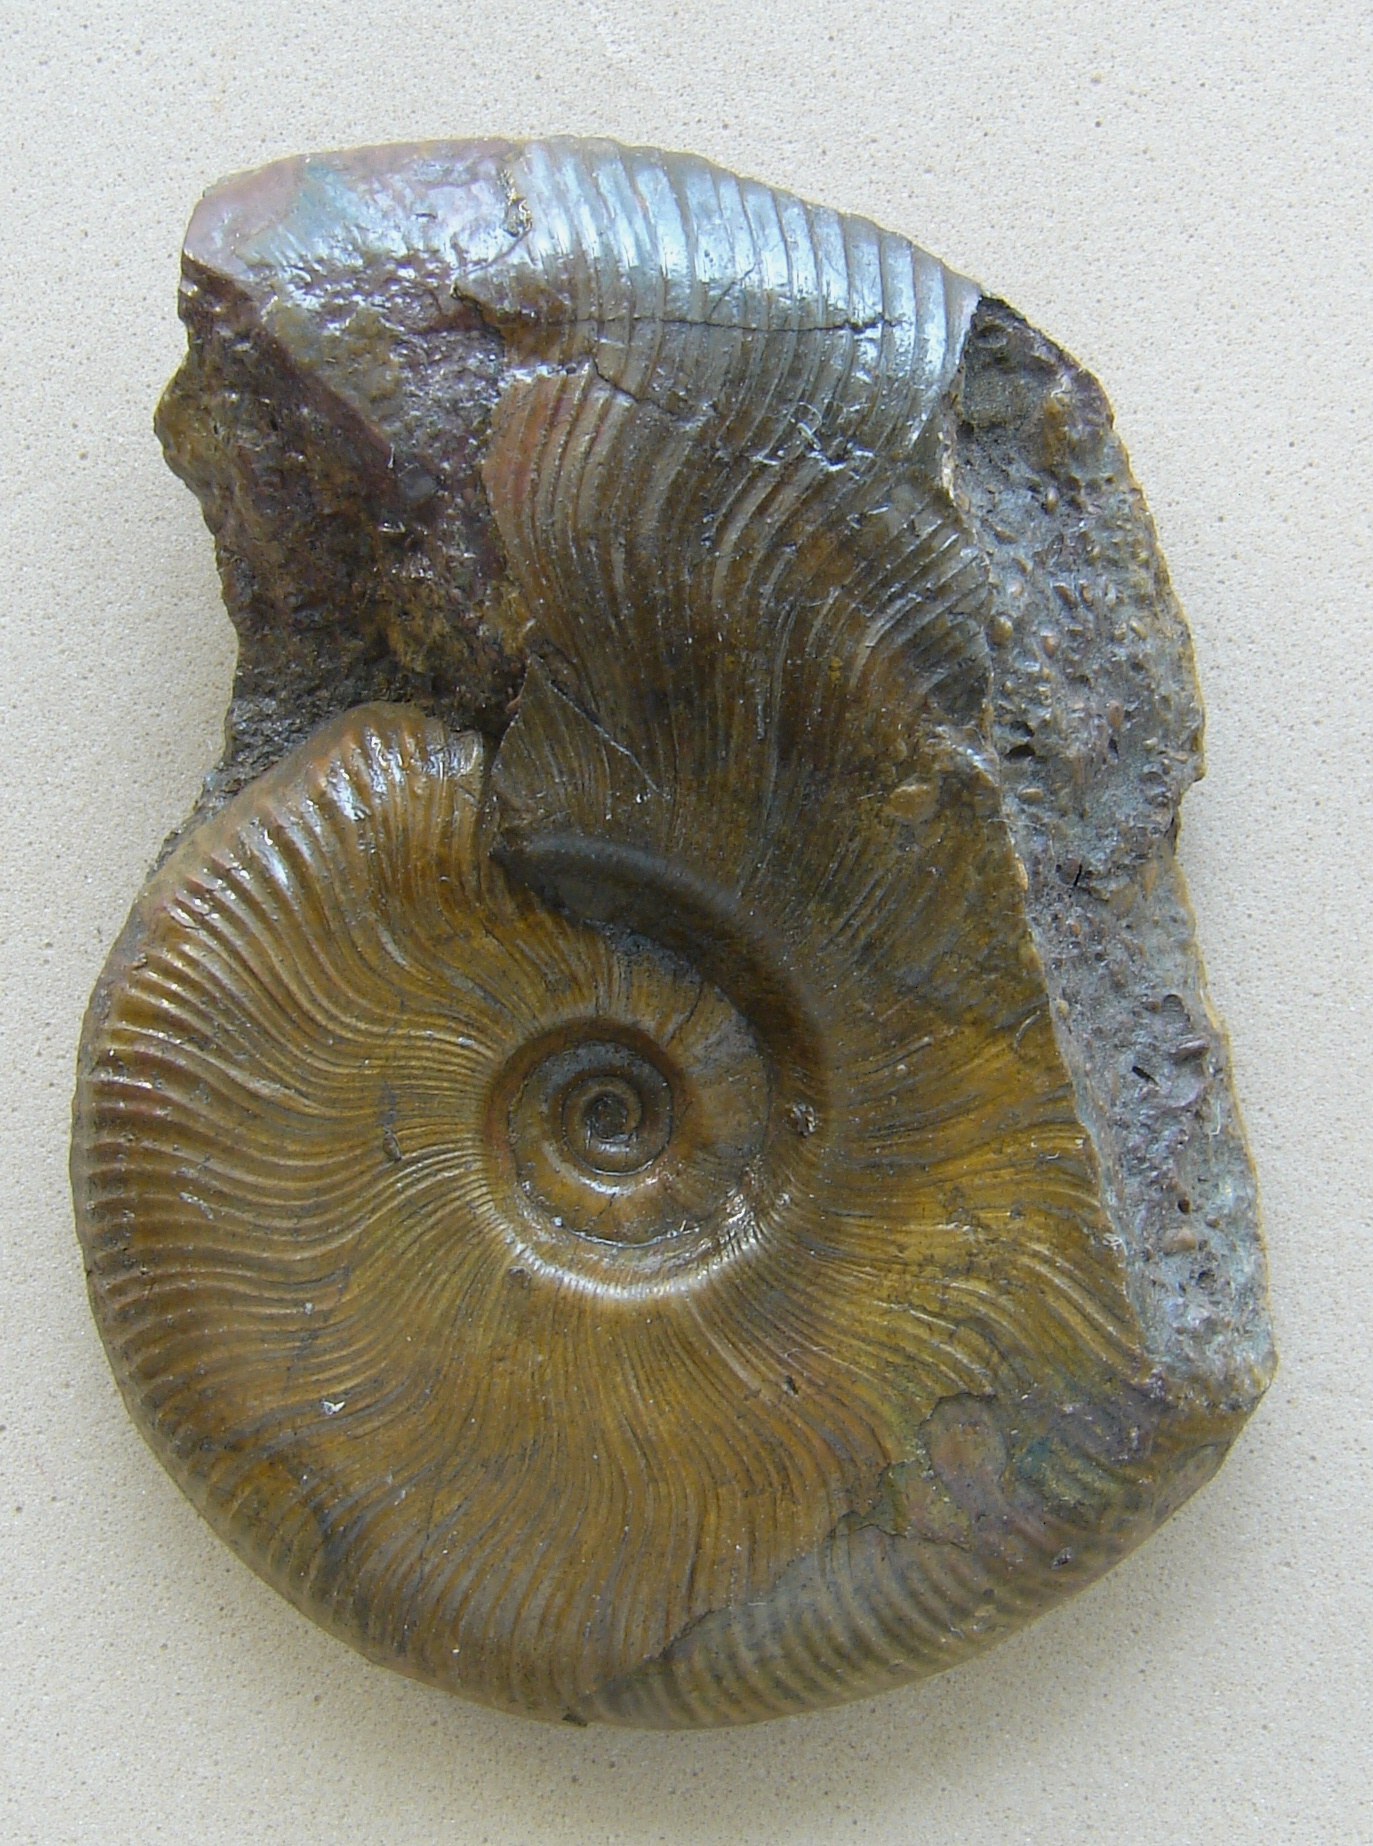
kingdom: Animalia
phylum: Mollusca
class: Cephalopoda
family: Hildoceratidae
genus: Pleydellia
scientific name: Pleydellia buckmani
